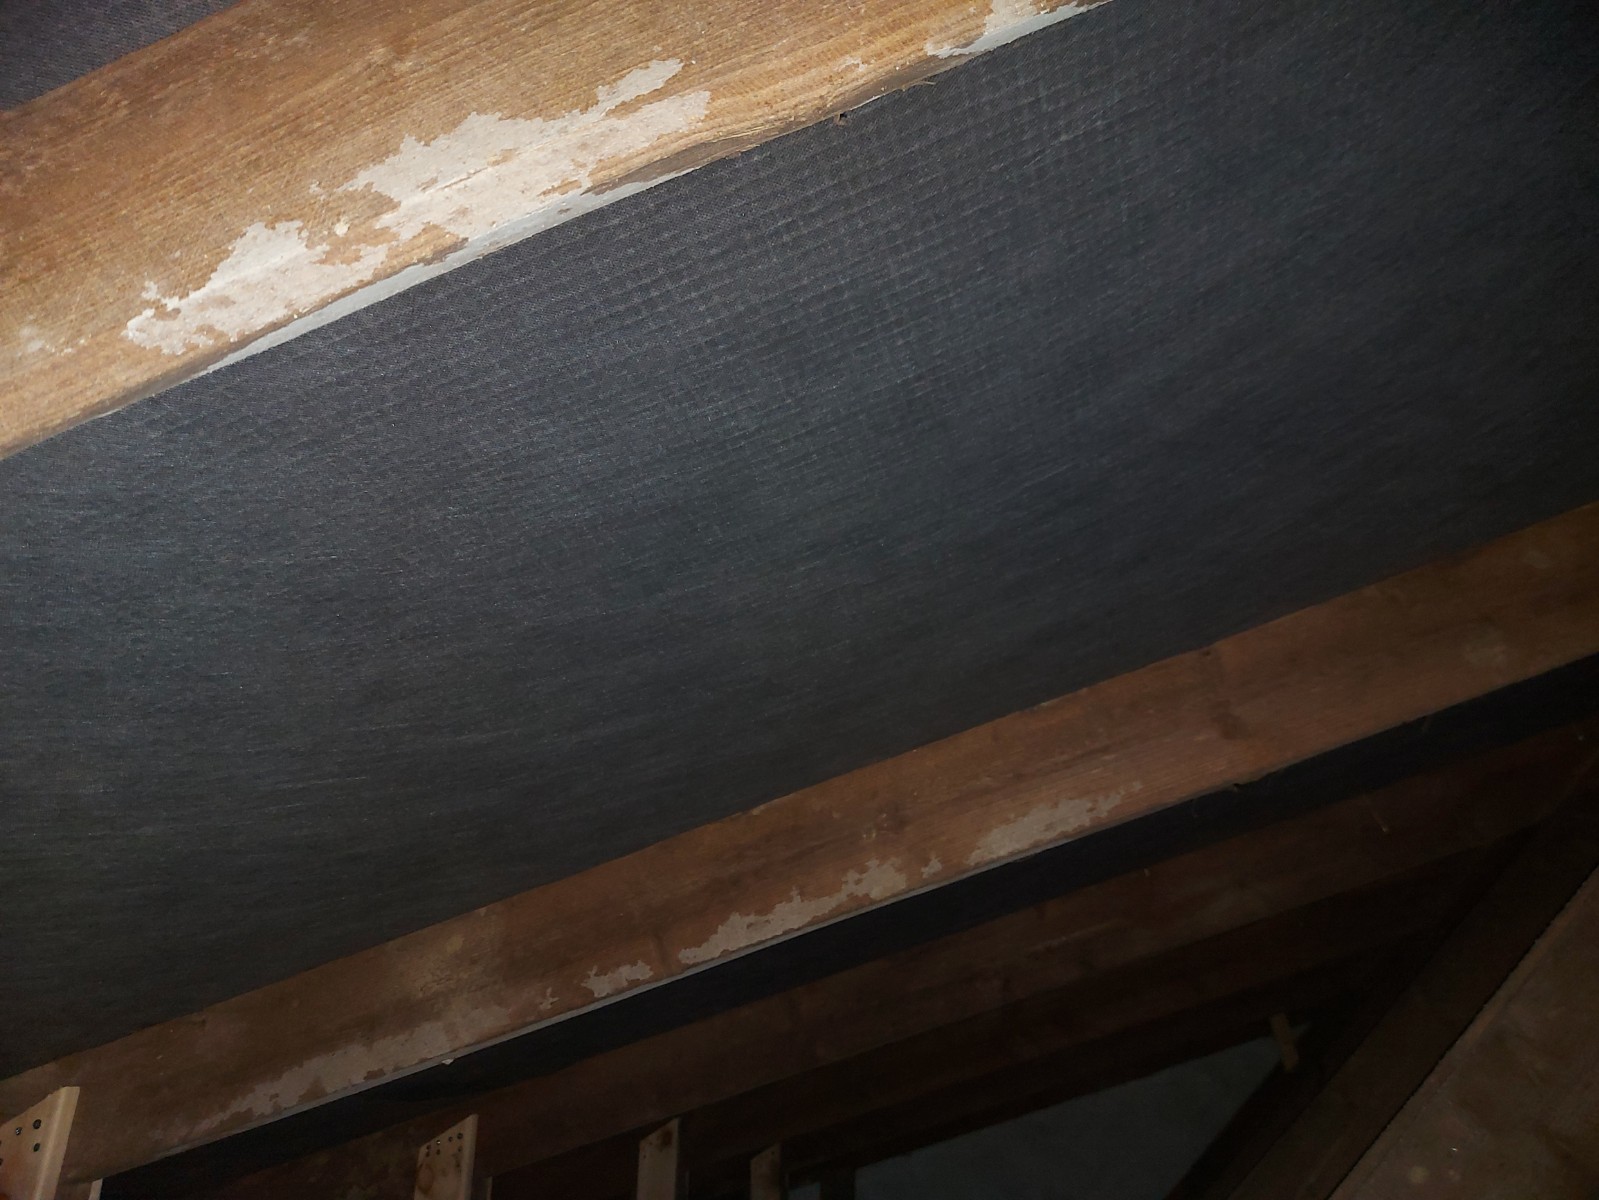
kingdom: Fungi
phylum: Basidiomycota
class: Agaricomycetes
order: Corticiales
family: Corticiaceae
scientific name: Corticiaceae
